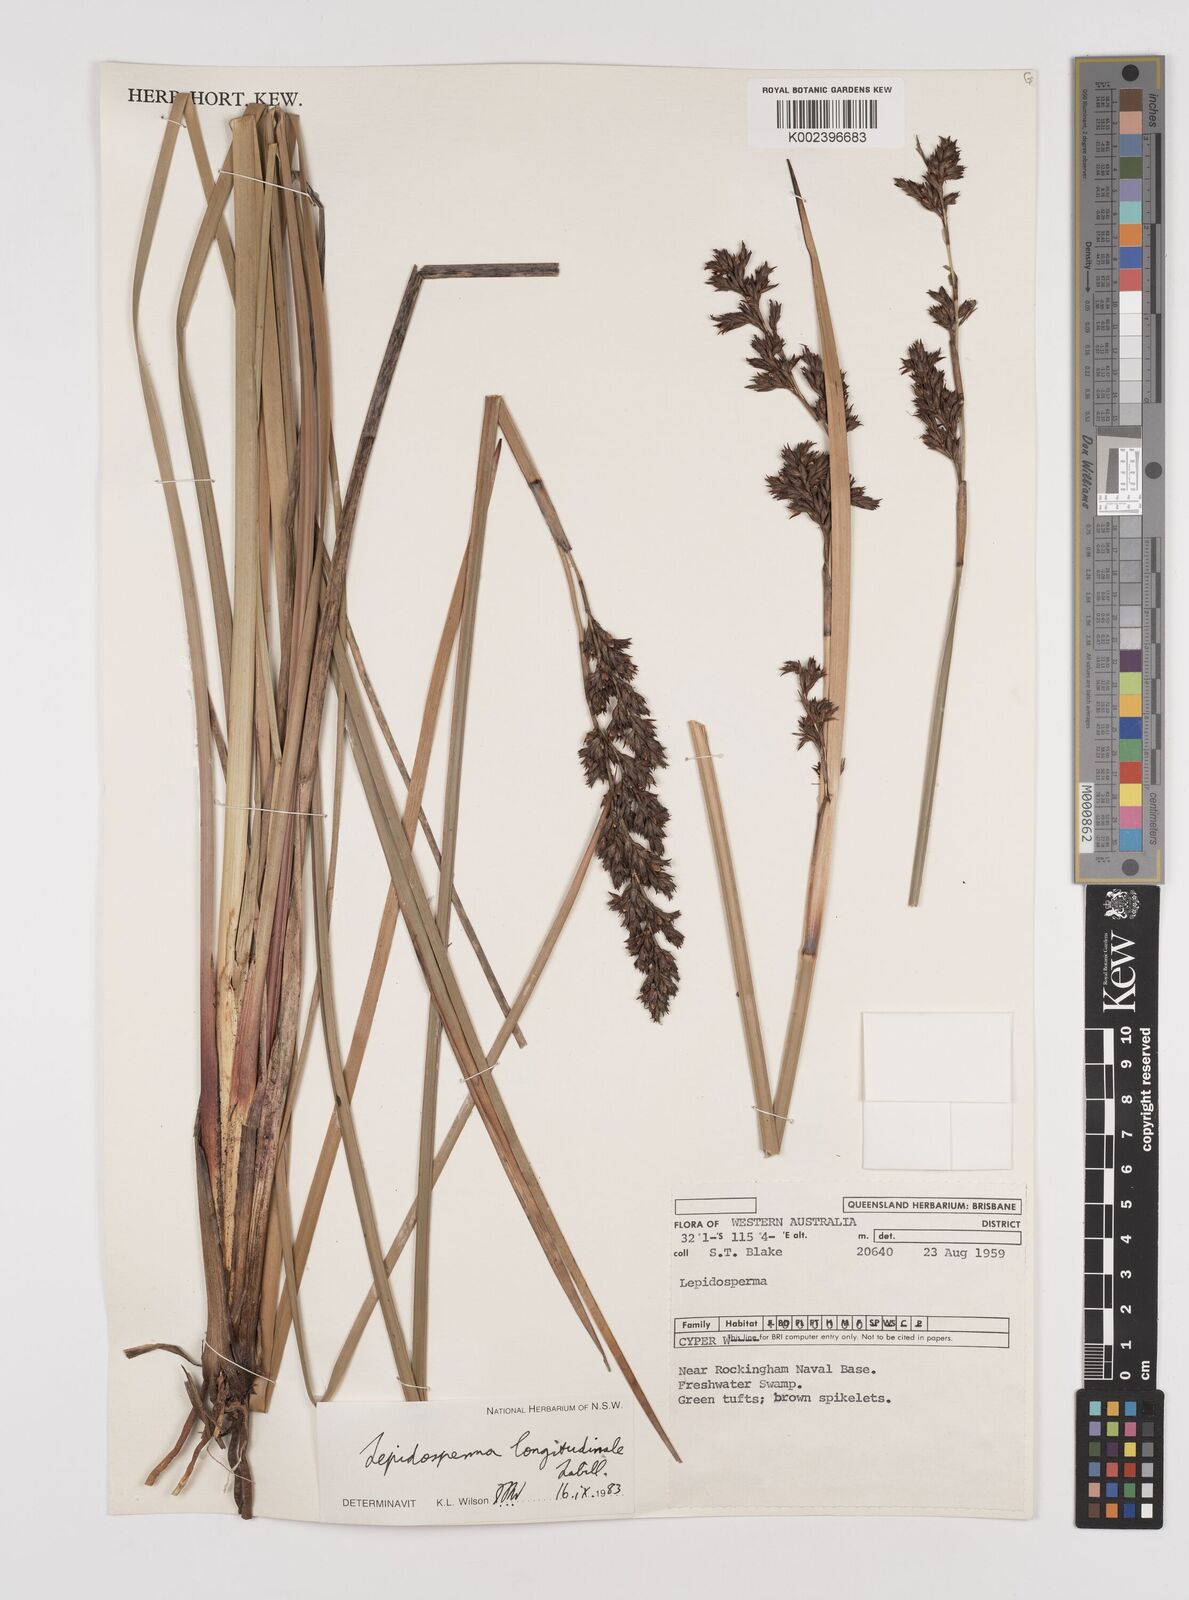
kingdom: Plantae
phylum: Tracheophyta
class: Liliopsida
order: Poales
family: Cyperaceae
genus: Lepidosperma
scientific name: Lepidosperma longitudinale
